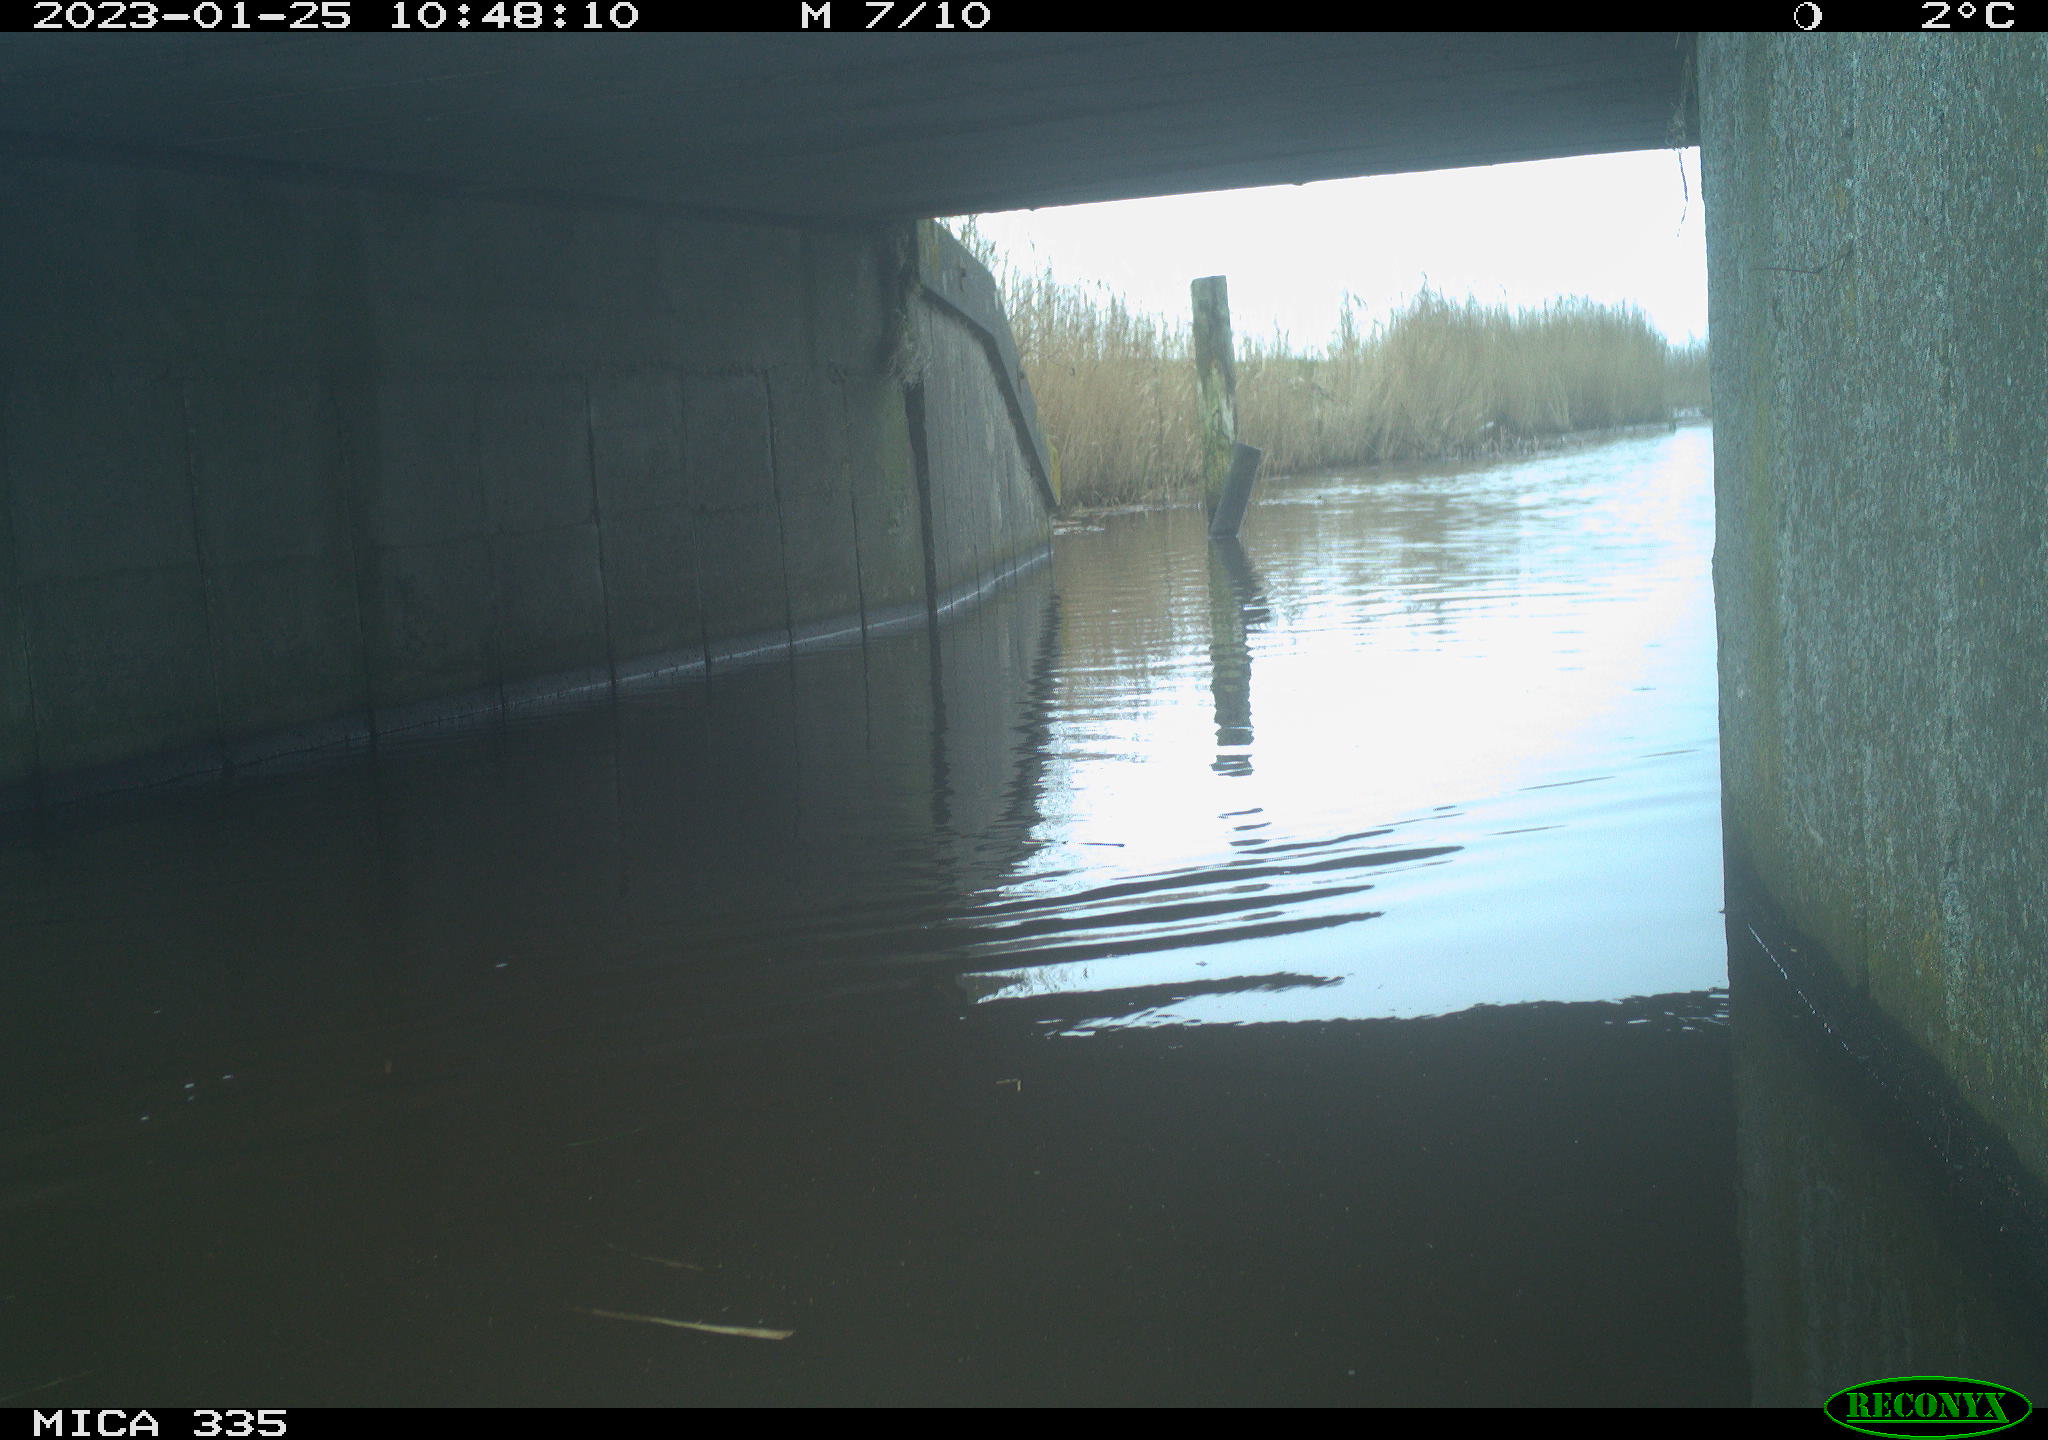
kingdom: Animalia
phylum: Chordata
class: Aves
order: Anseriformes
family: Anatidae
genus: Anas
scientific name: Anas
